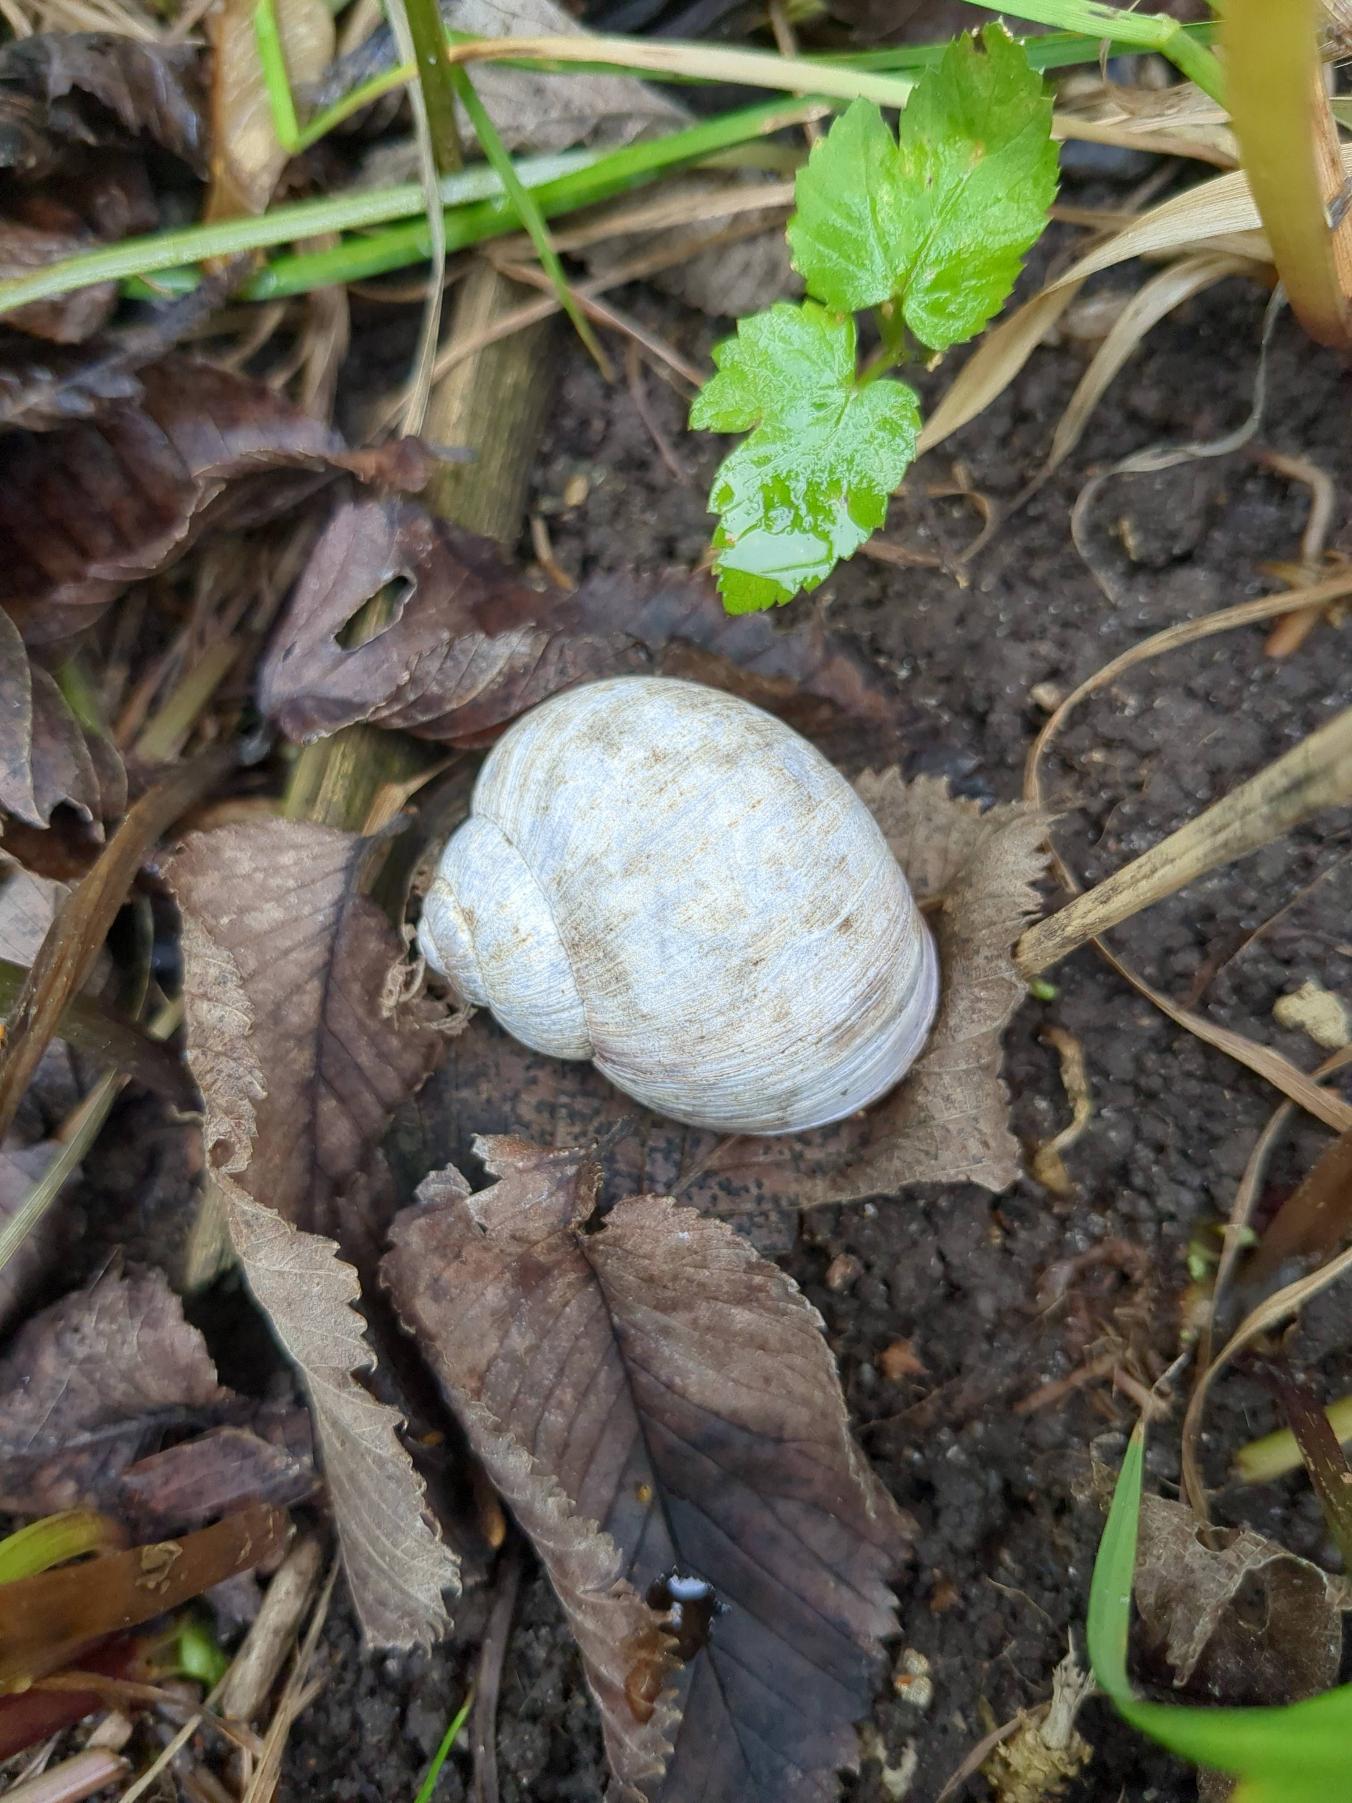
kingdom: Animalia
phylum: Mollusca
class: Gastropoda
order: Stylommatophora
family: Helicidae
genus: Helix
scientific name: Helix pomatia
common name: Vinbjergsnegl
